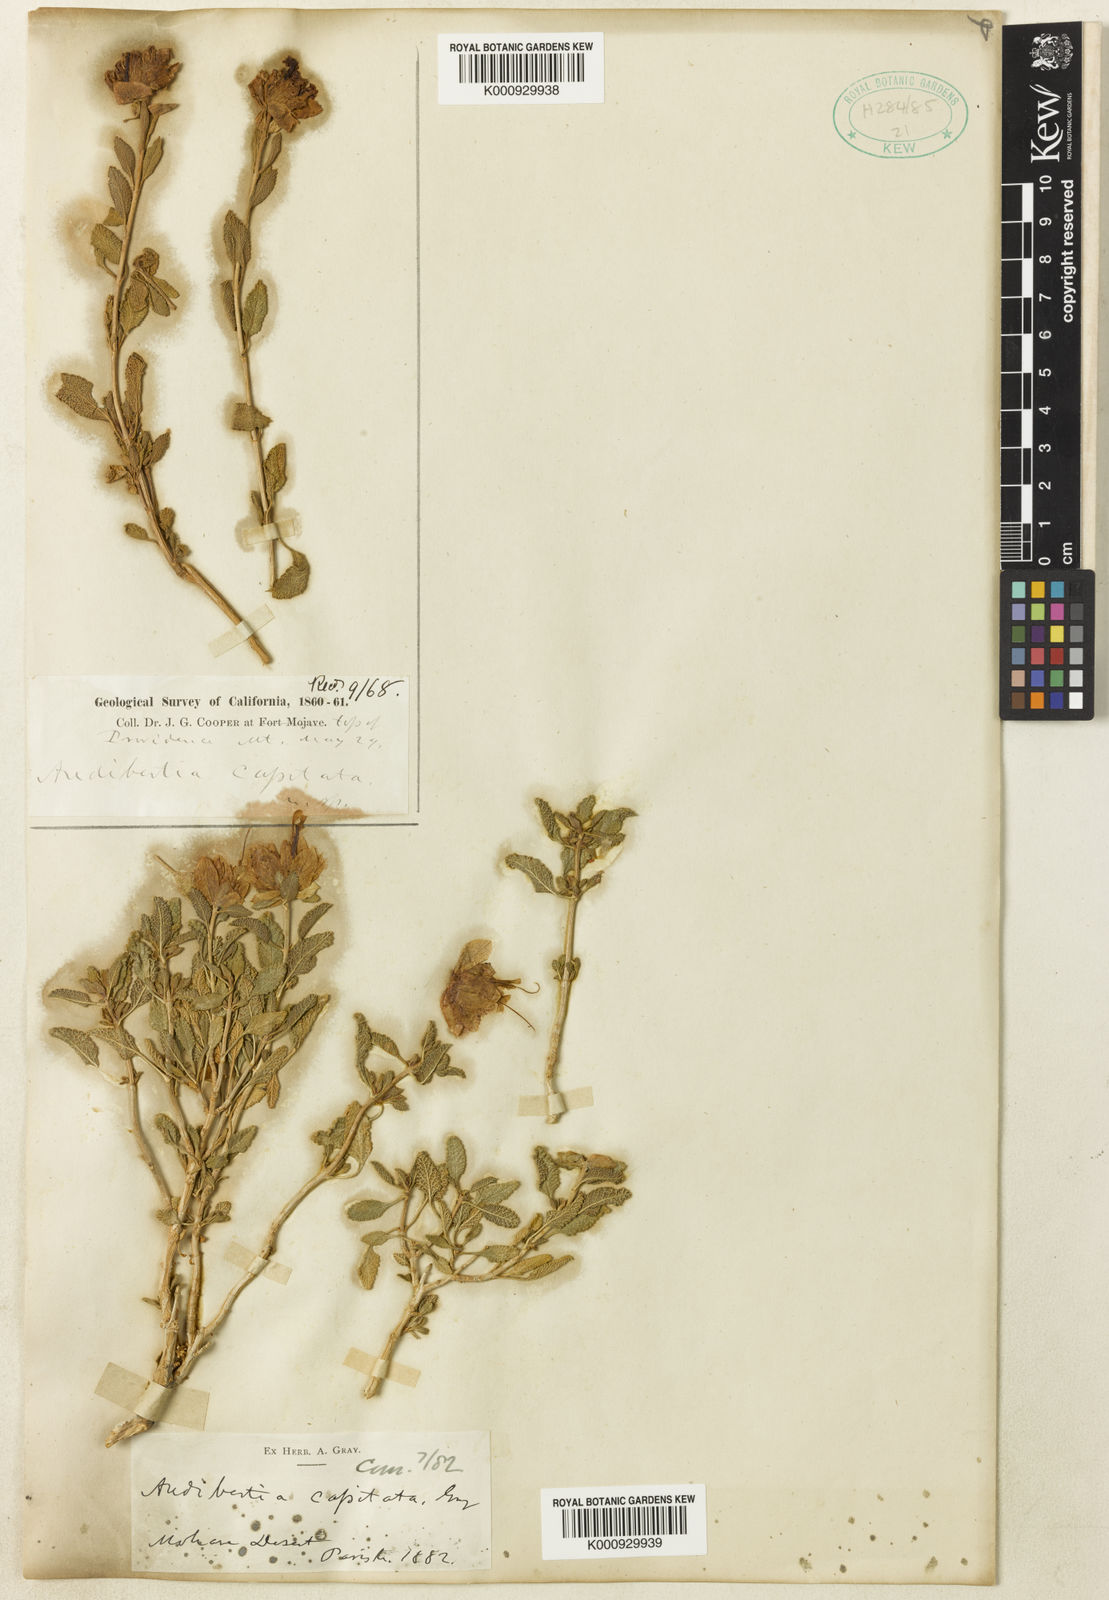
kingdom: Plantae
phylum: Tracheophyta
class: Magnoliopsida
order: Lamiales
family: Lamiaceae
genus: Salvia
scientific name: Salvia mohavensis
